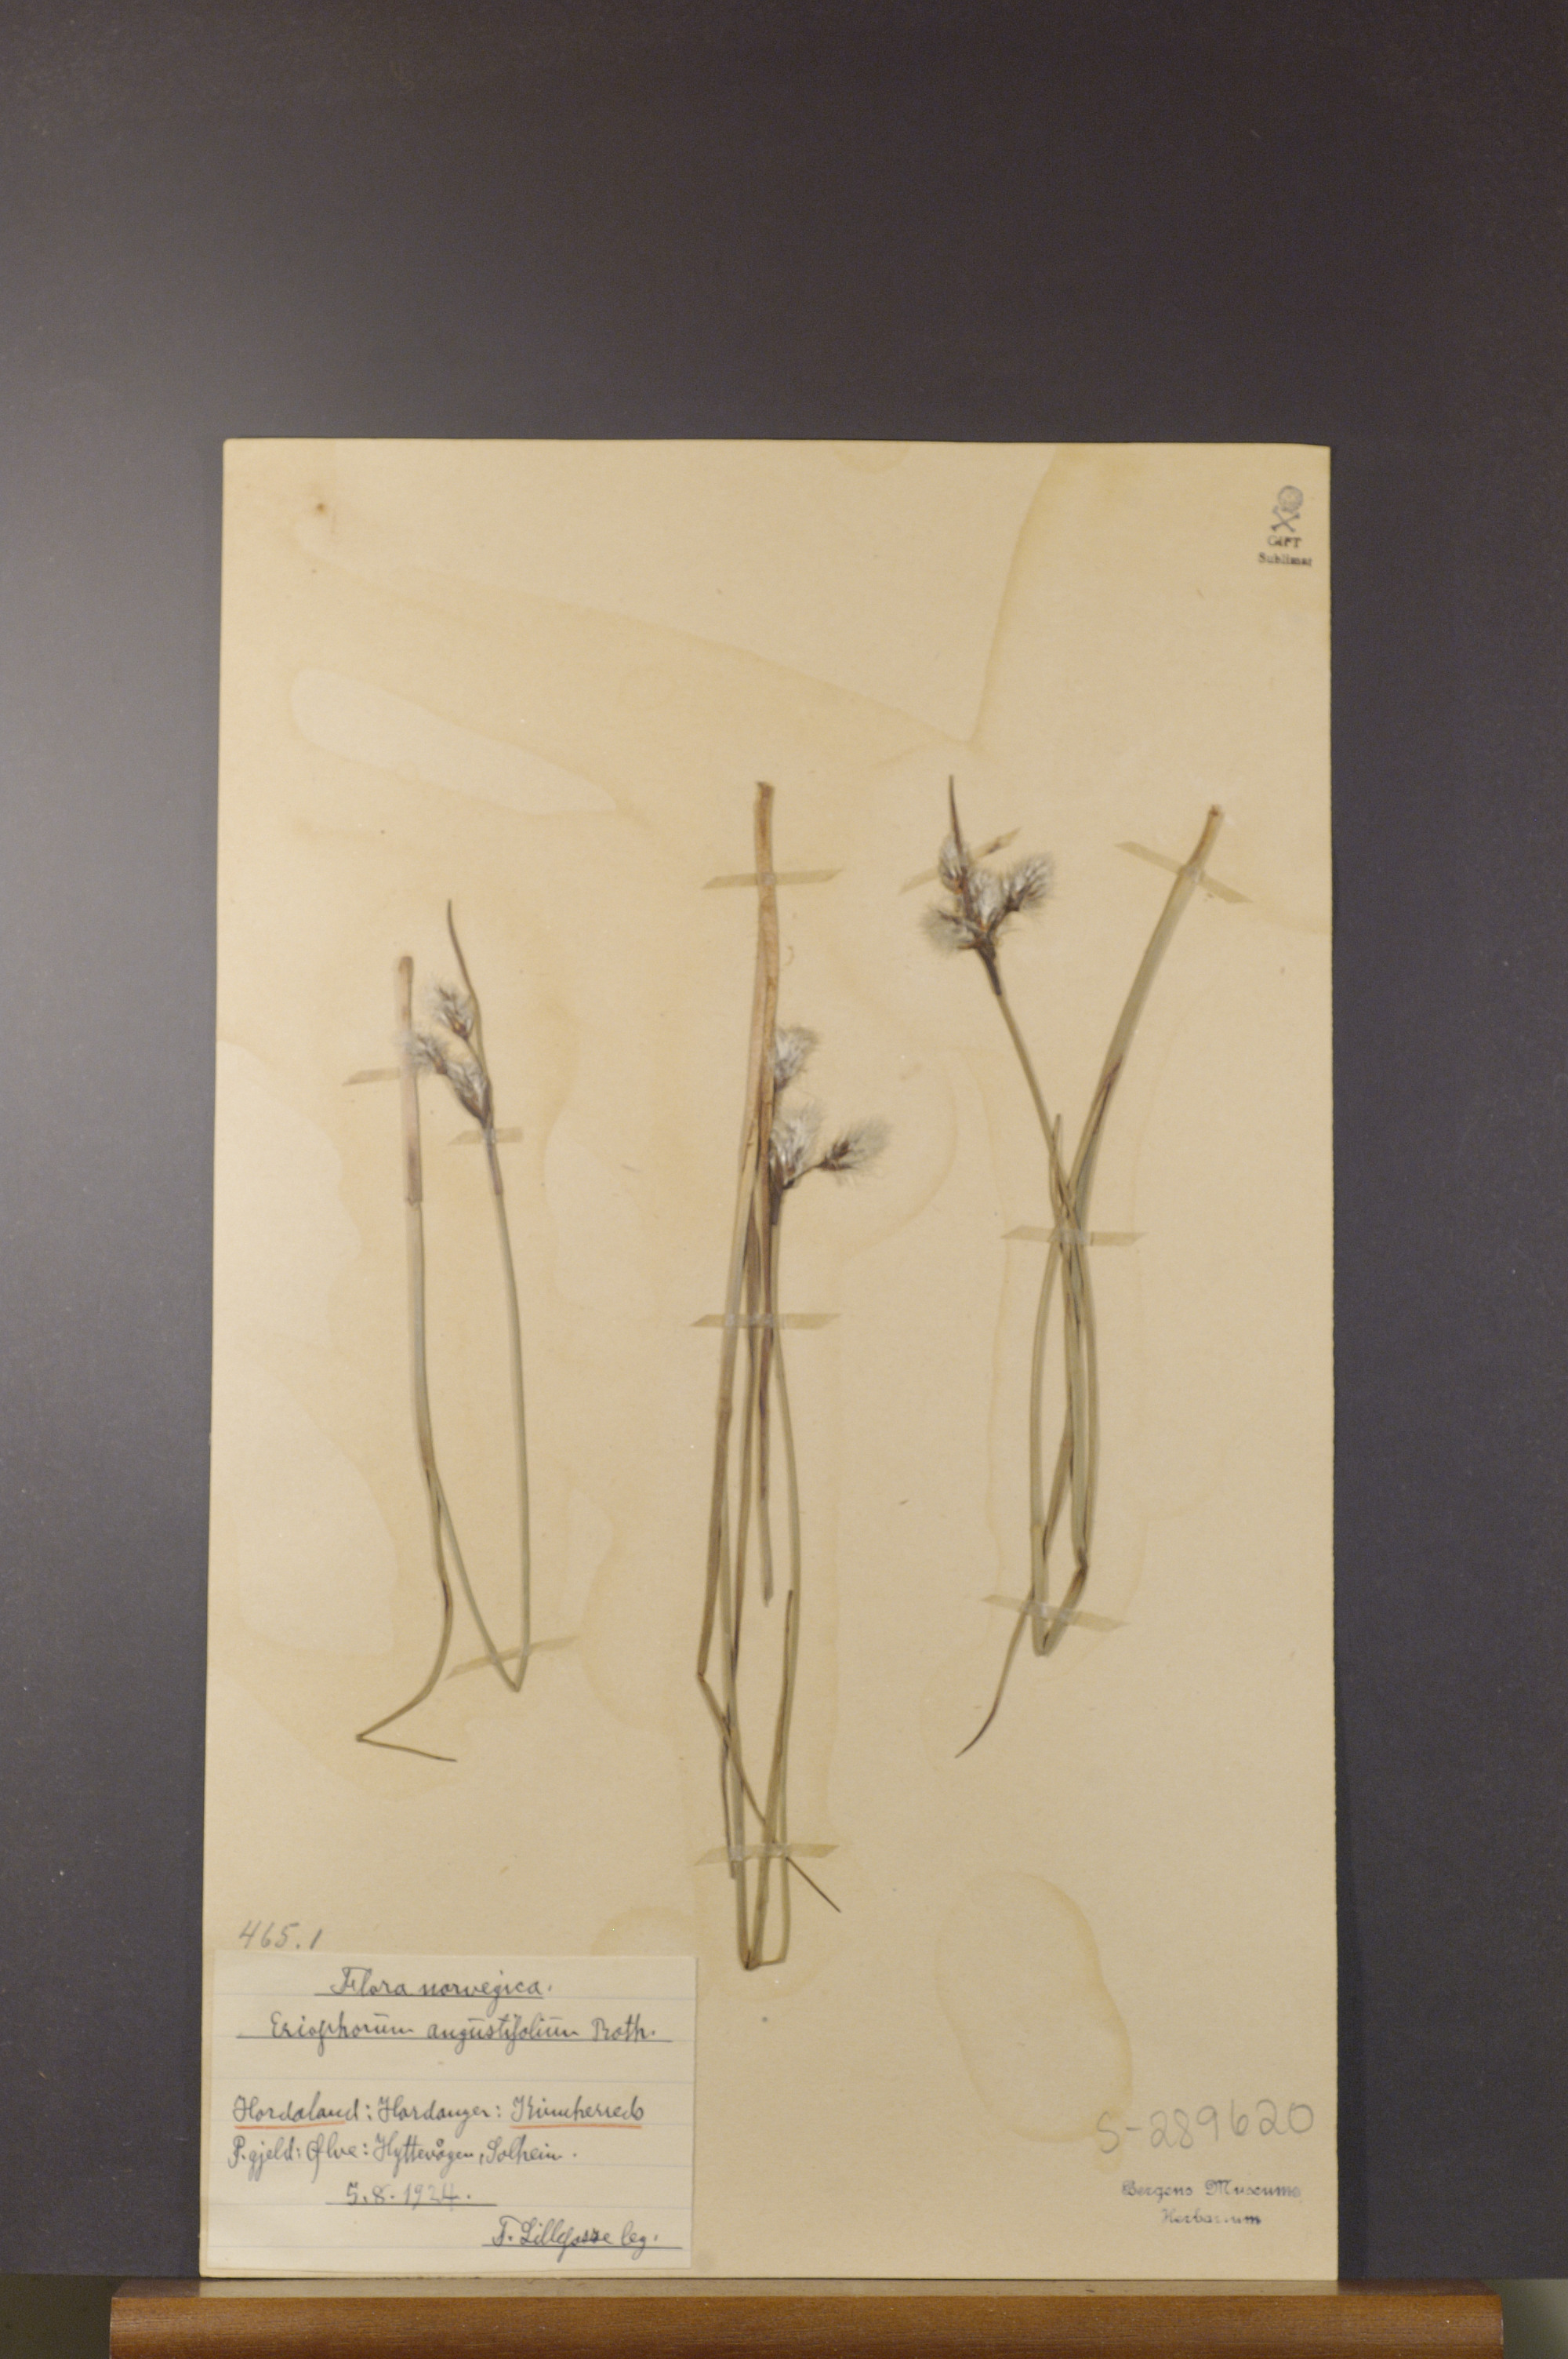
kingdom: Plantae
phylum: Tracheophyta
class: Liliopsida
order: Poales
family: Cyperaceae
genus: Eriophorum
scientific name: Eriophorum angustifolium
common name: Common cottongrass
